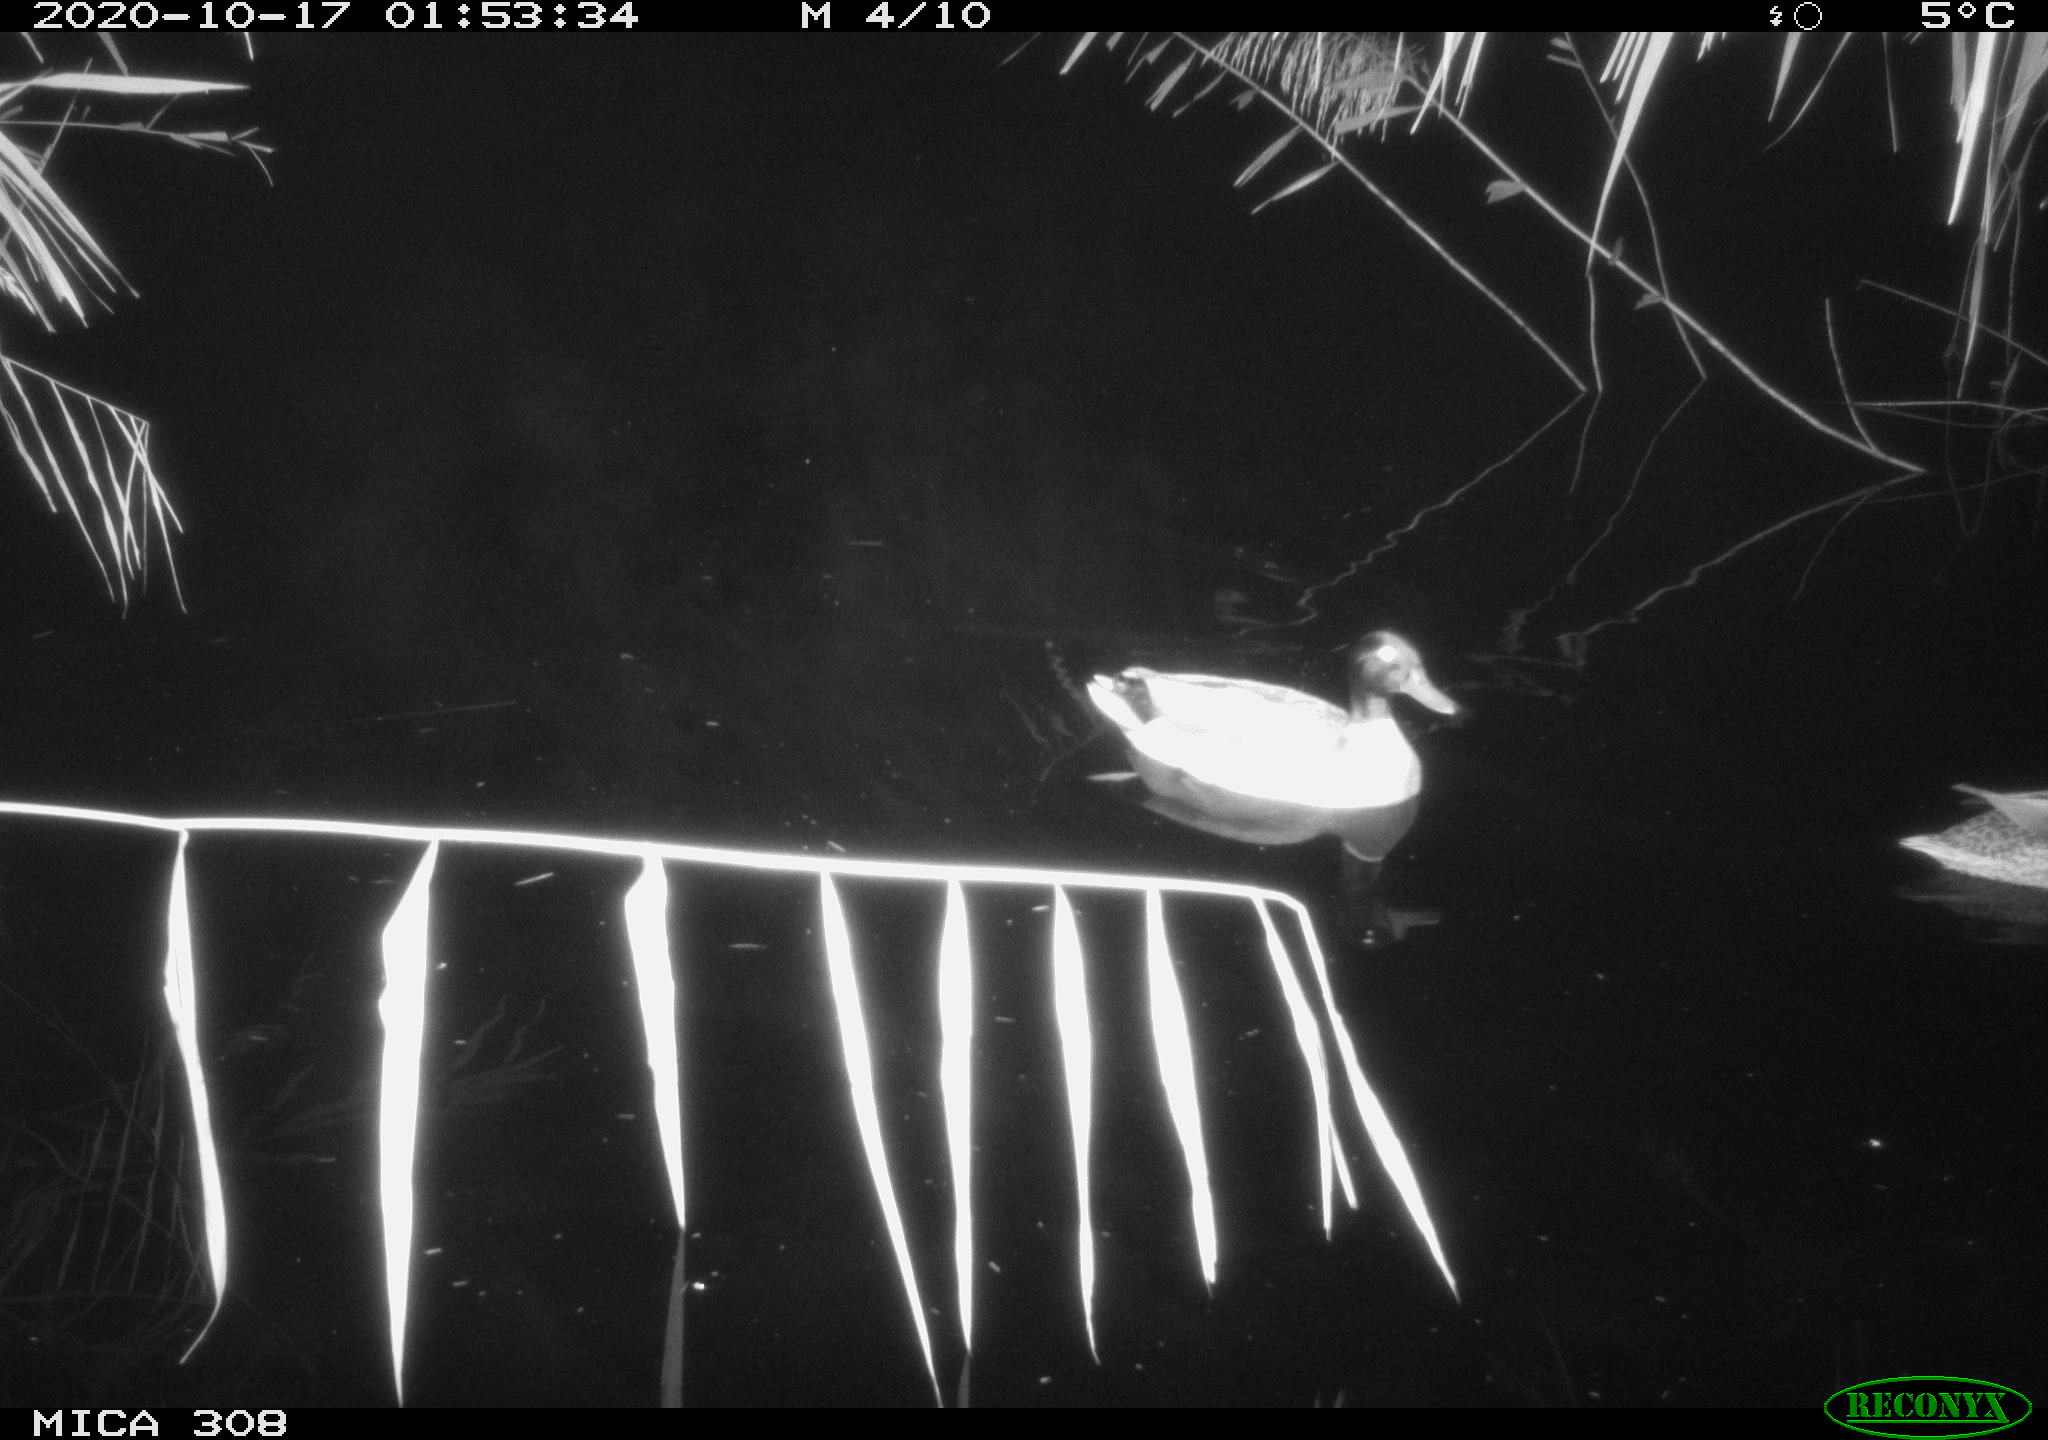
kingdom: Animalia
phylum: Chordata
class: Aves
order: Anseriformes
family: Anatidae
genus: Anas
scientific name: Anas platyrhynchos
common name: Mallard
